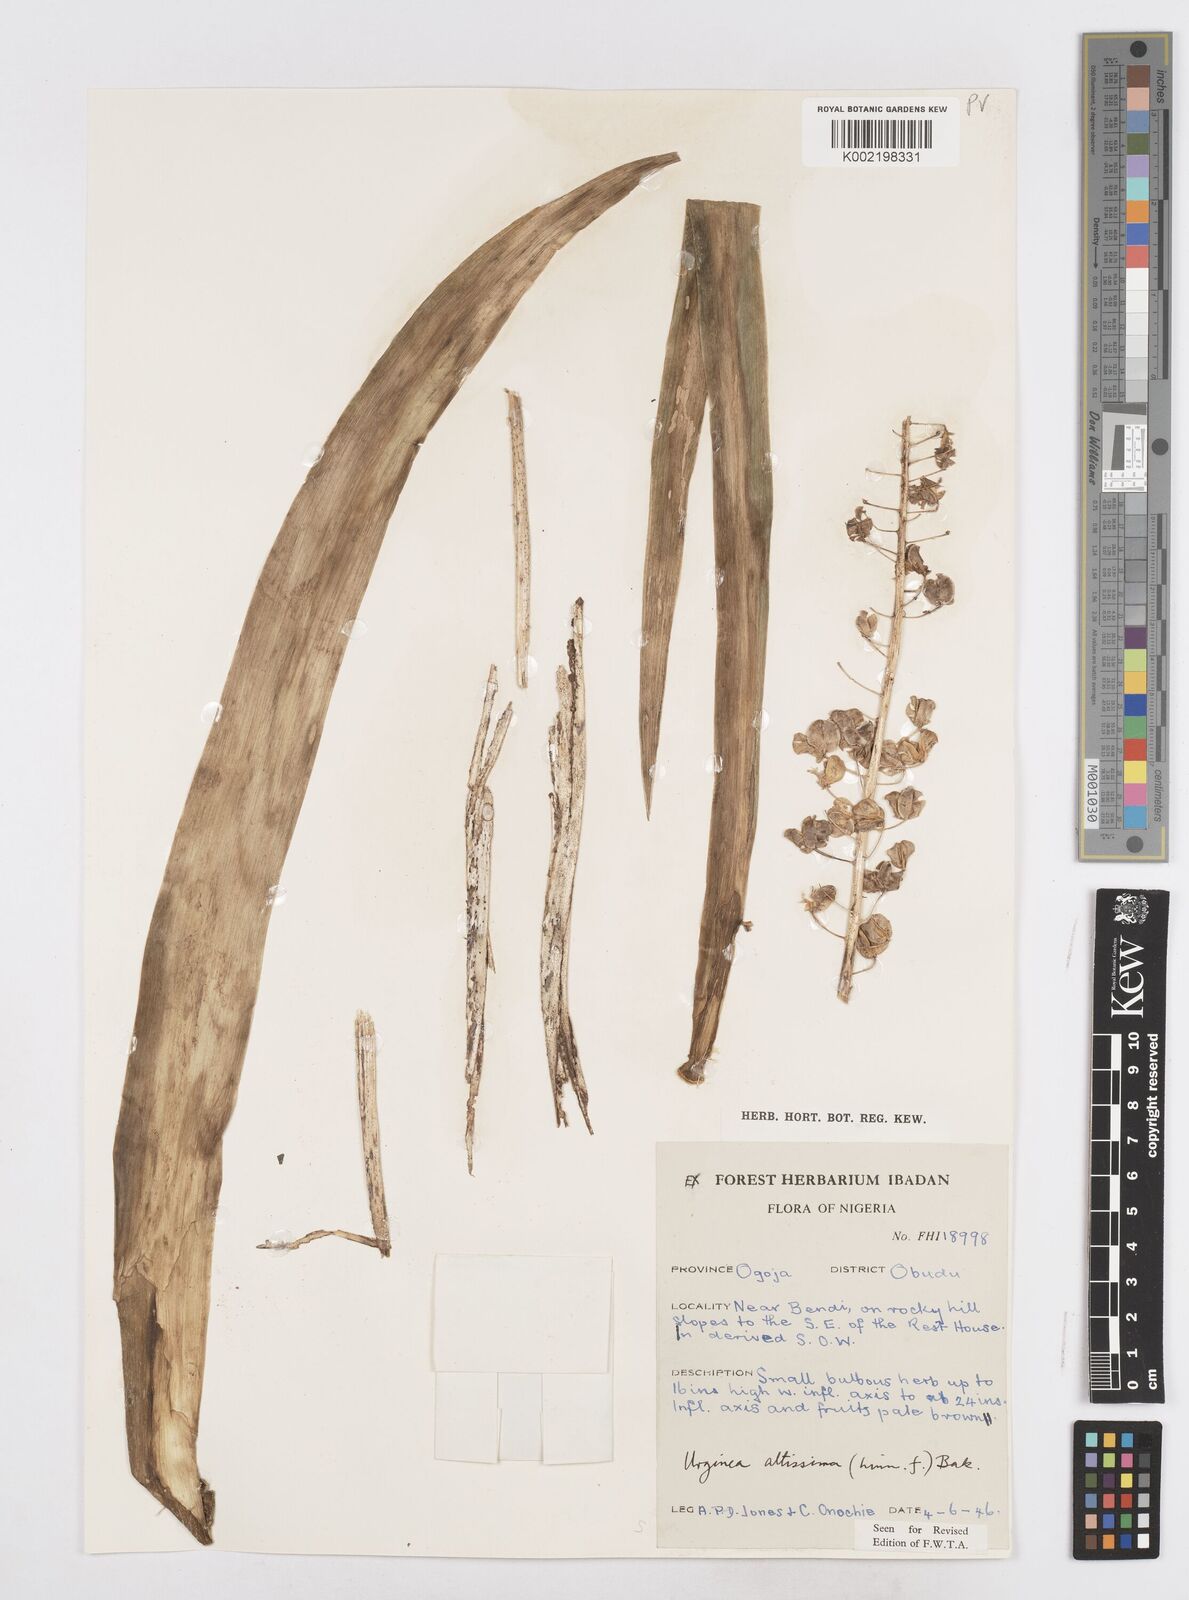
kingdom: Plantae
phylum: Tracheophyta
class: Liliopsida
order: Asparagales
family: Asparagaceae
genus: Drimia
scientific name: Drimia altissima
